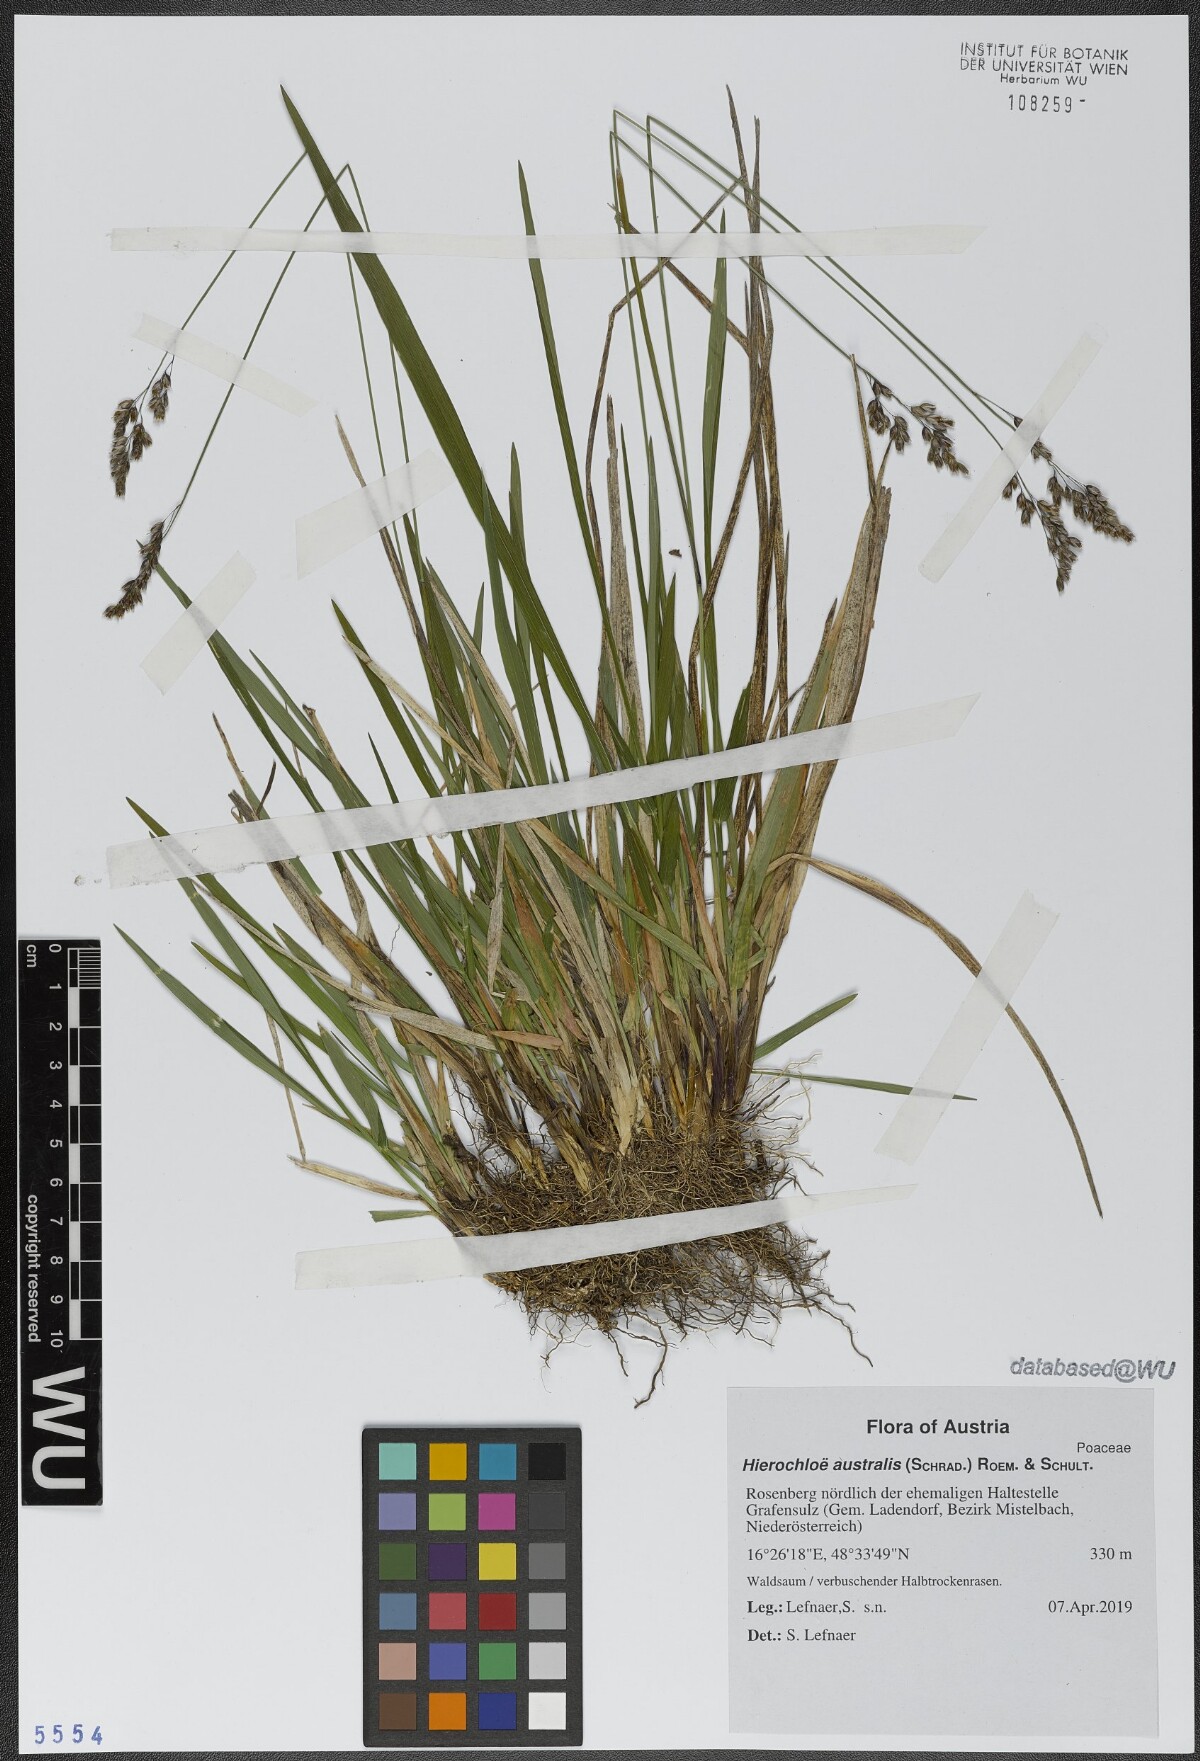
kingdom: Plantae
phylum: Tracheophyta
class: Liliopsida
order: Poales
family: Poaceae
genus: Anthoxanthum
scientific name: Anthoxanthum australe
